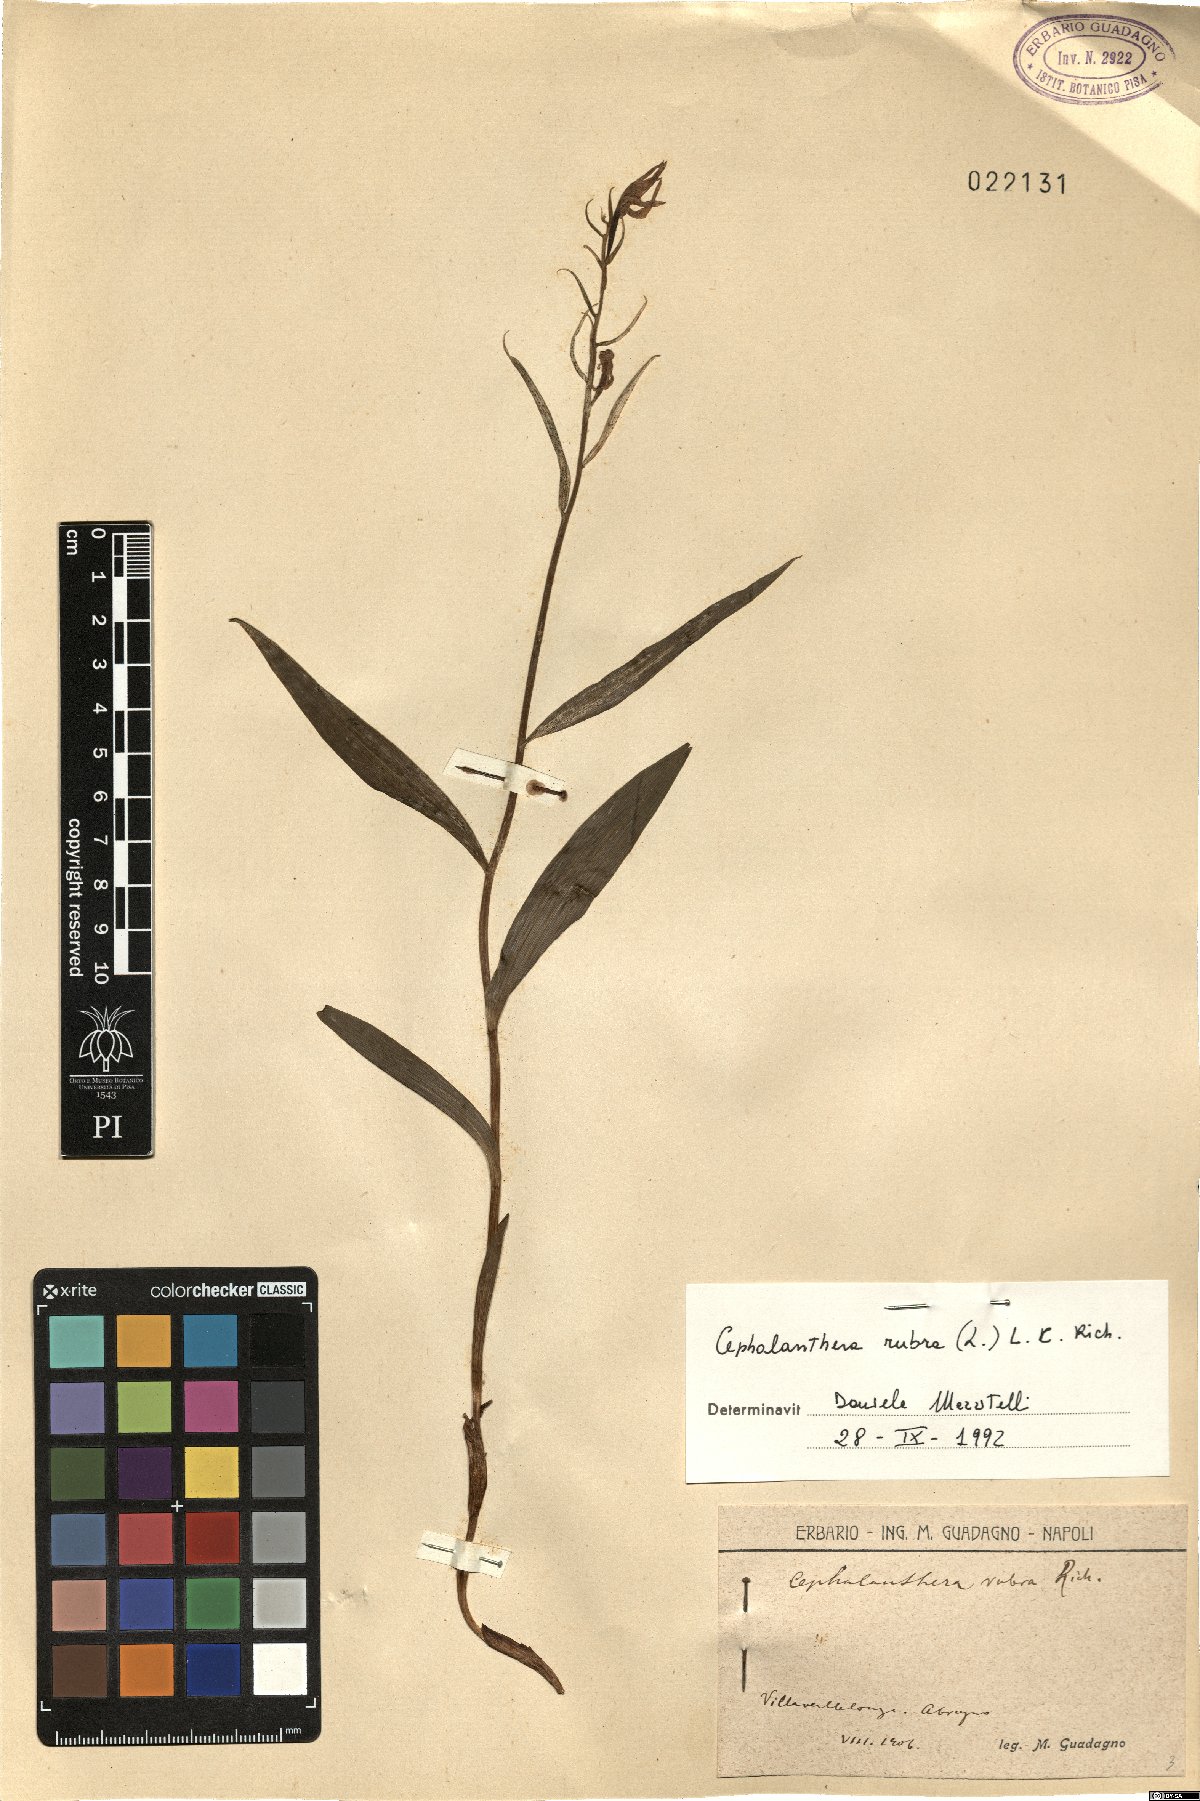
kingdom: Plantae
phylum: Tracheophyta
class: Liliopsida
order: Asparagales
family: Orchidaceae
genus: Cephalanthera
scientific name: Cephalanthera rubra
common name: Red helleborine
